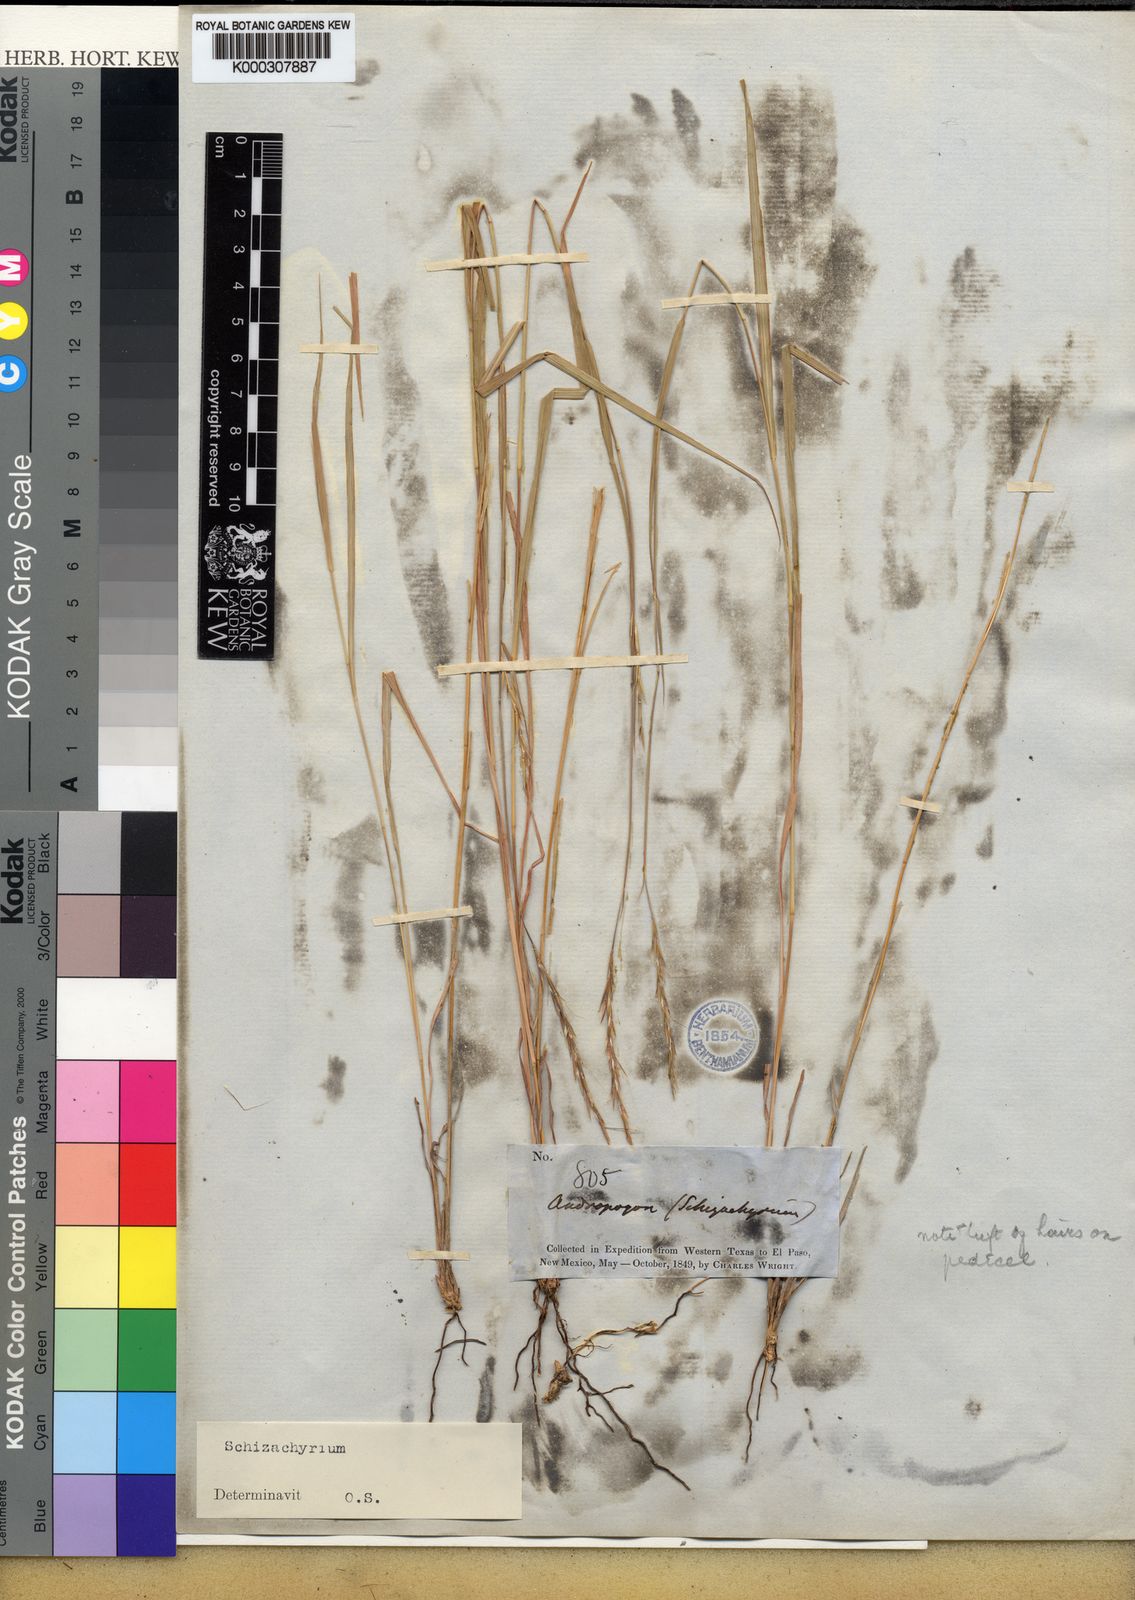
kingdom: Plantae
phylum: Tracheophyta
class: Liliopsida
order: Poales
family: Poaceae
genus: Schizachyrium
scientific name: Schizachyrium
